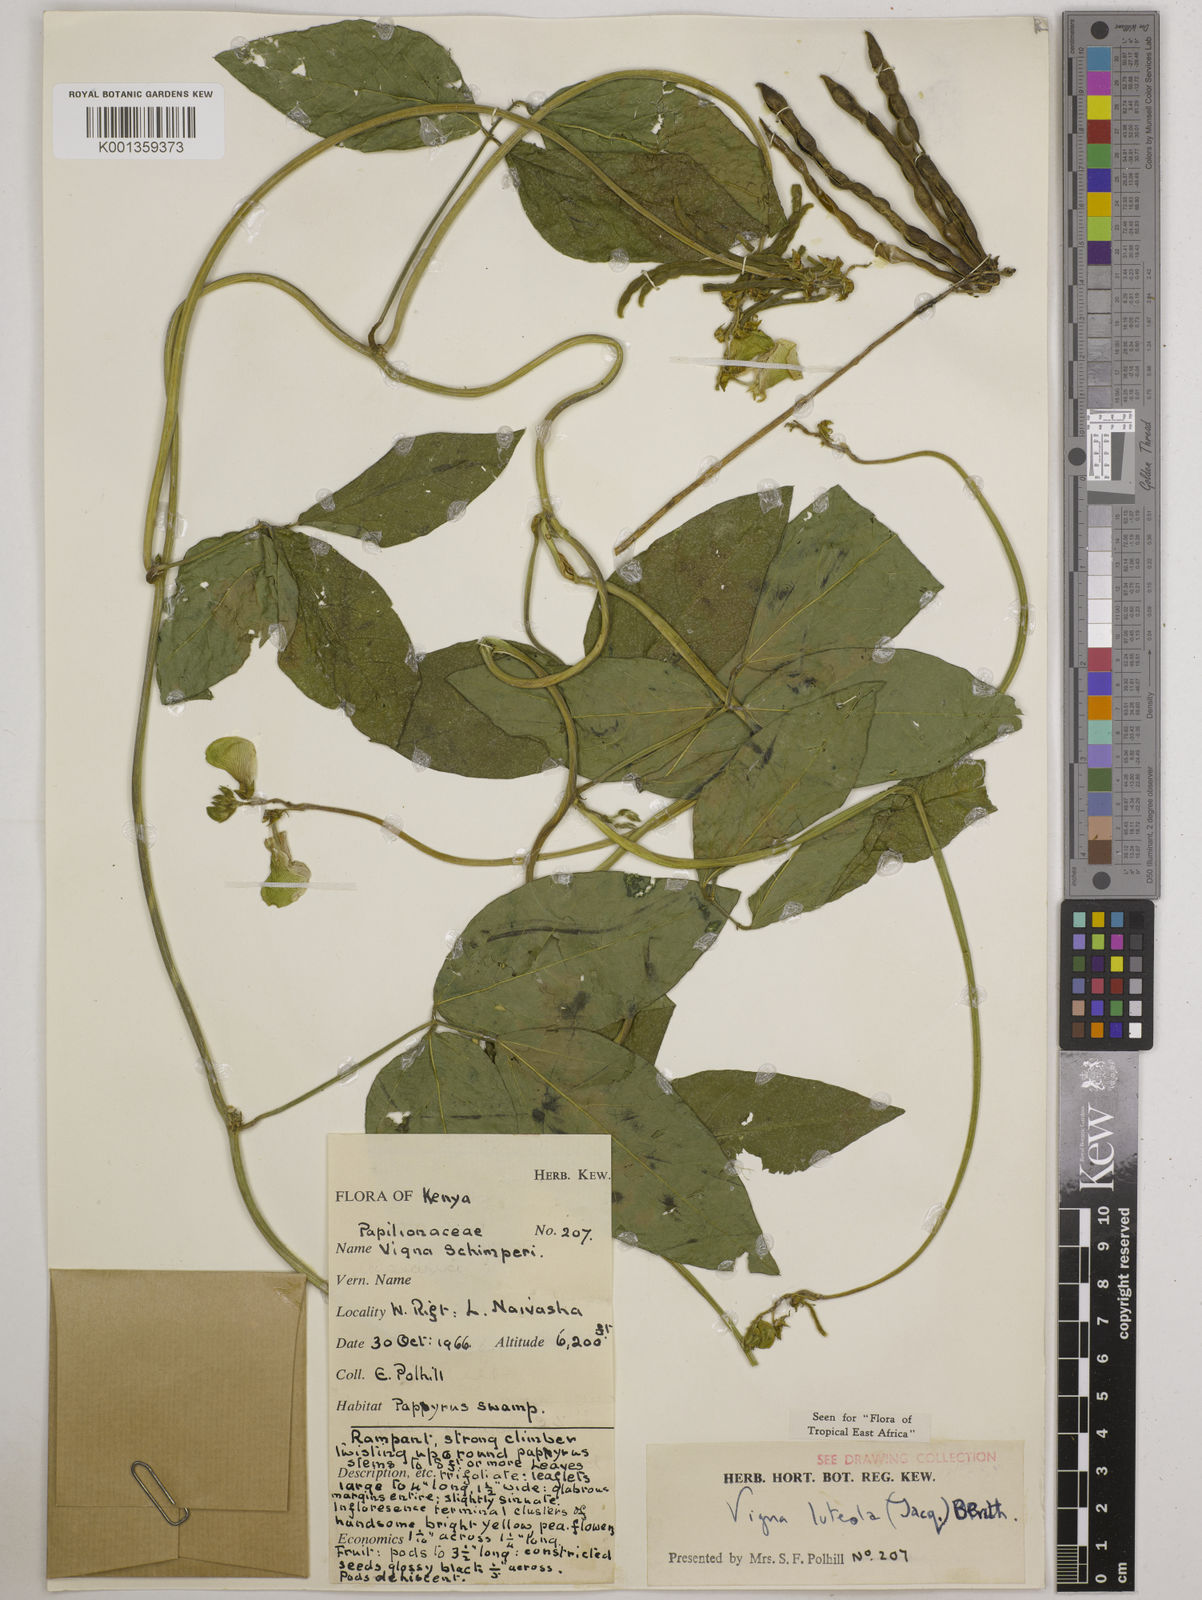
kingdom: Plantae
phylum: Tracheophyta
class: Magnoliopsida
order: Fabales
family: Fabaceae
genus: Vigna
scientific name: Vigna luteola
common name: Hairypod cowpea
